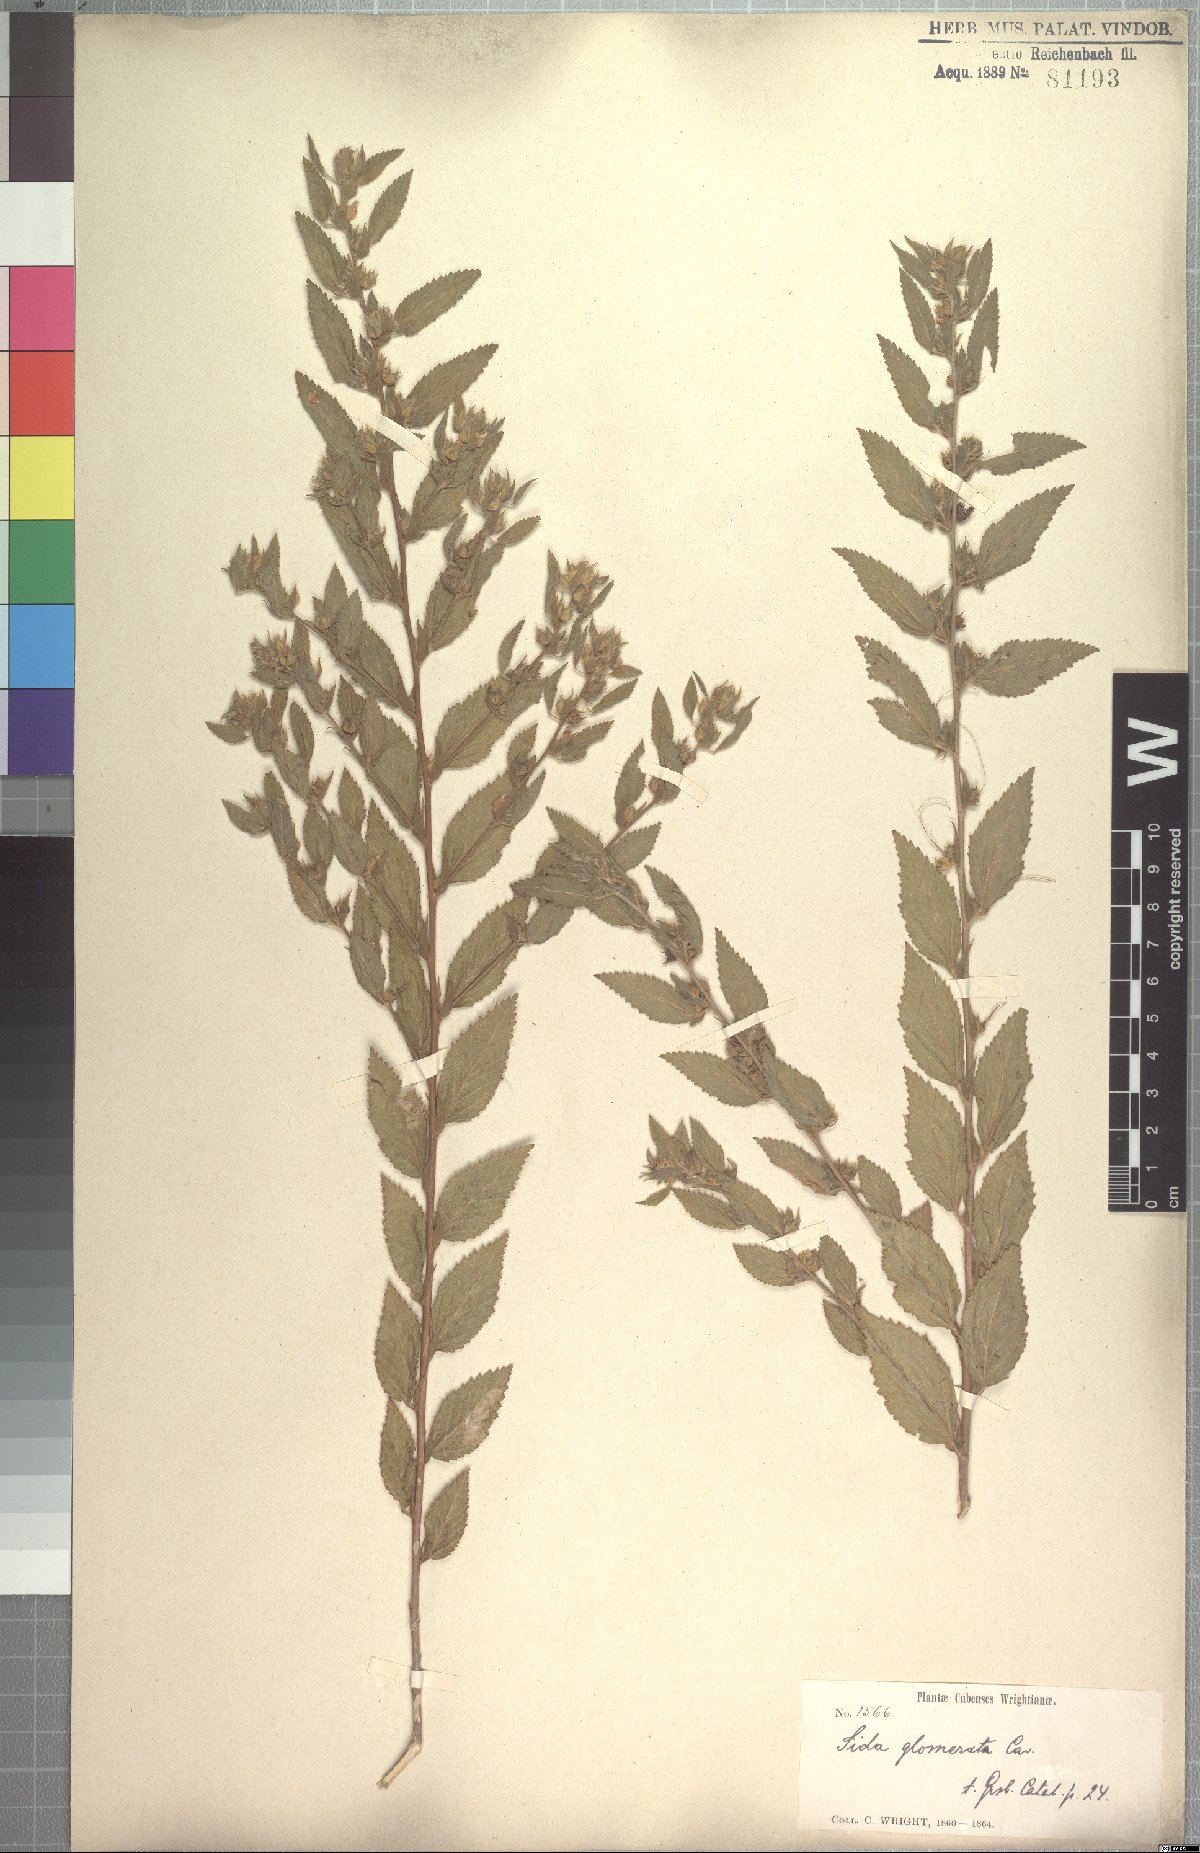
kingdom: Plantae
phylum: Tracheophyta
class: Magnoliopsida
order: Malvales
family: Malvaceae
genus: Sida
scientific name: Sida glomerata
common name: Clustered fanpetals
